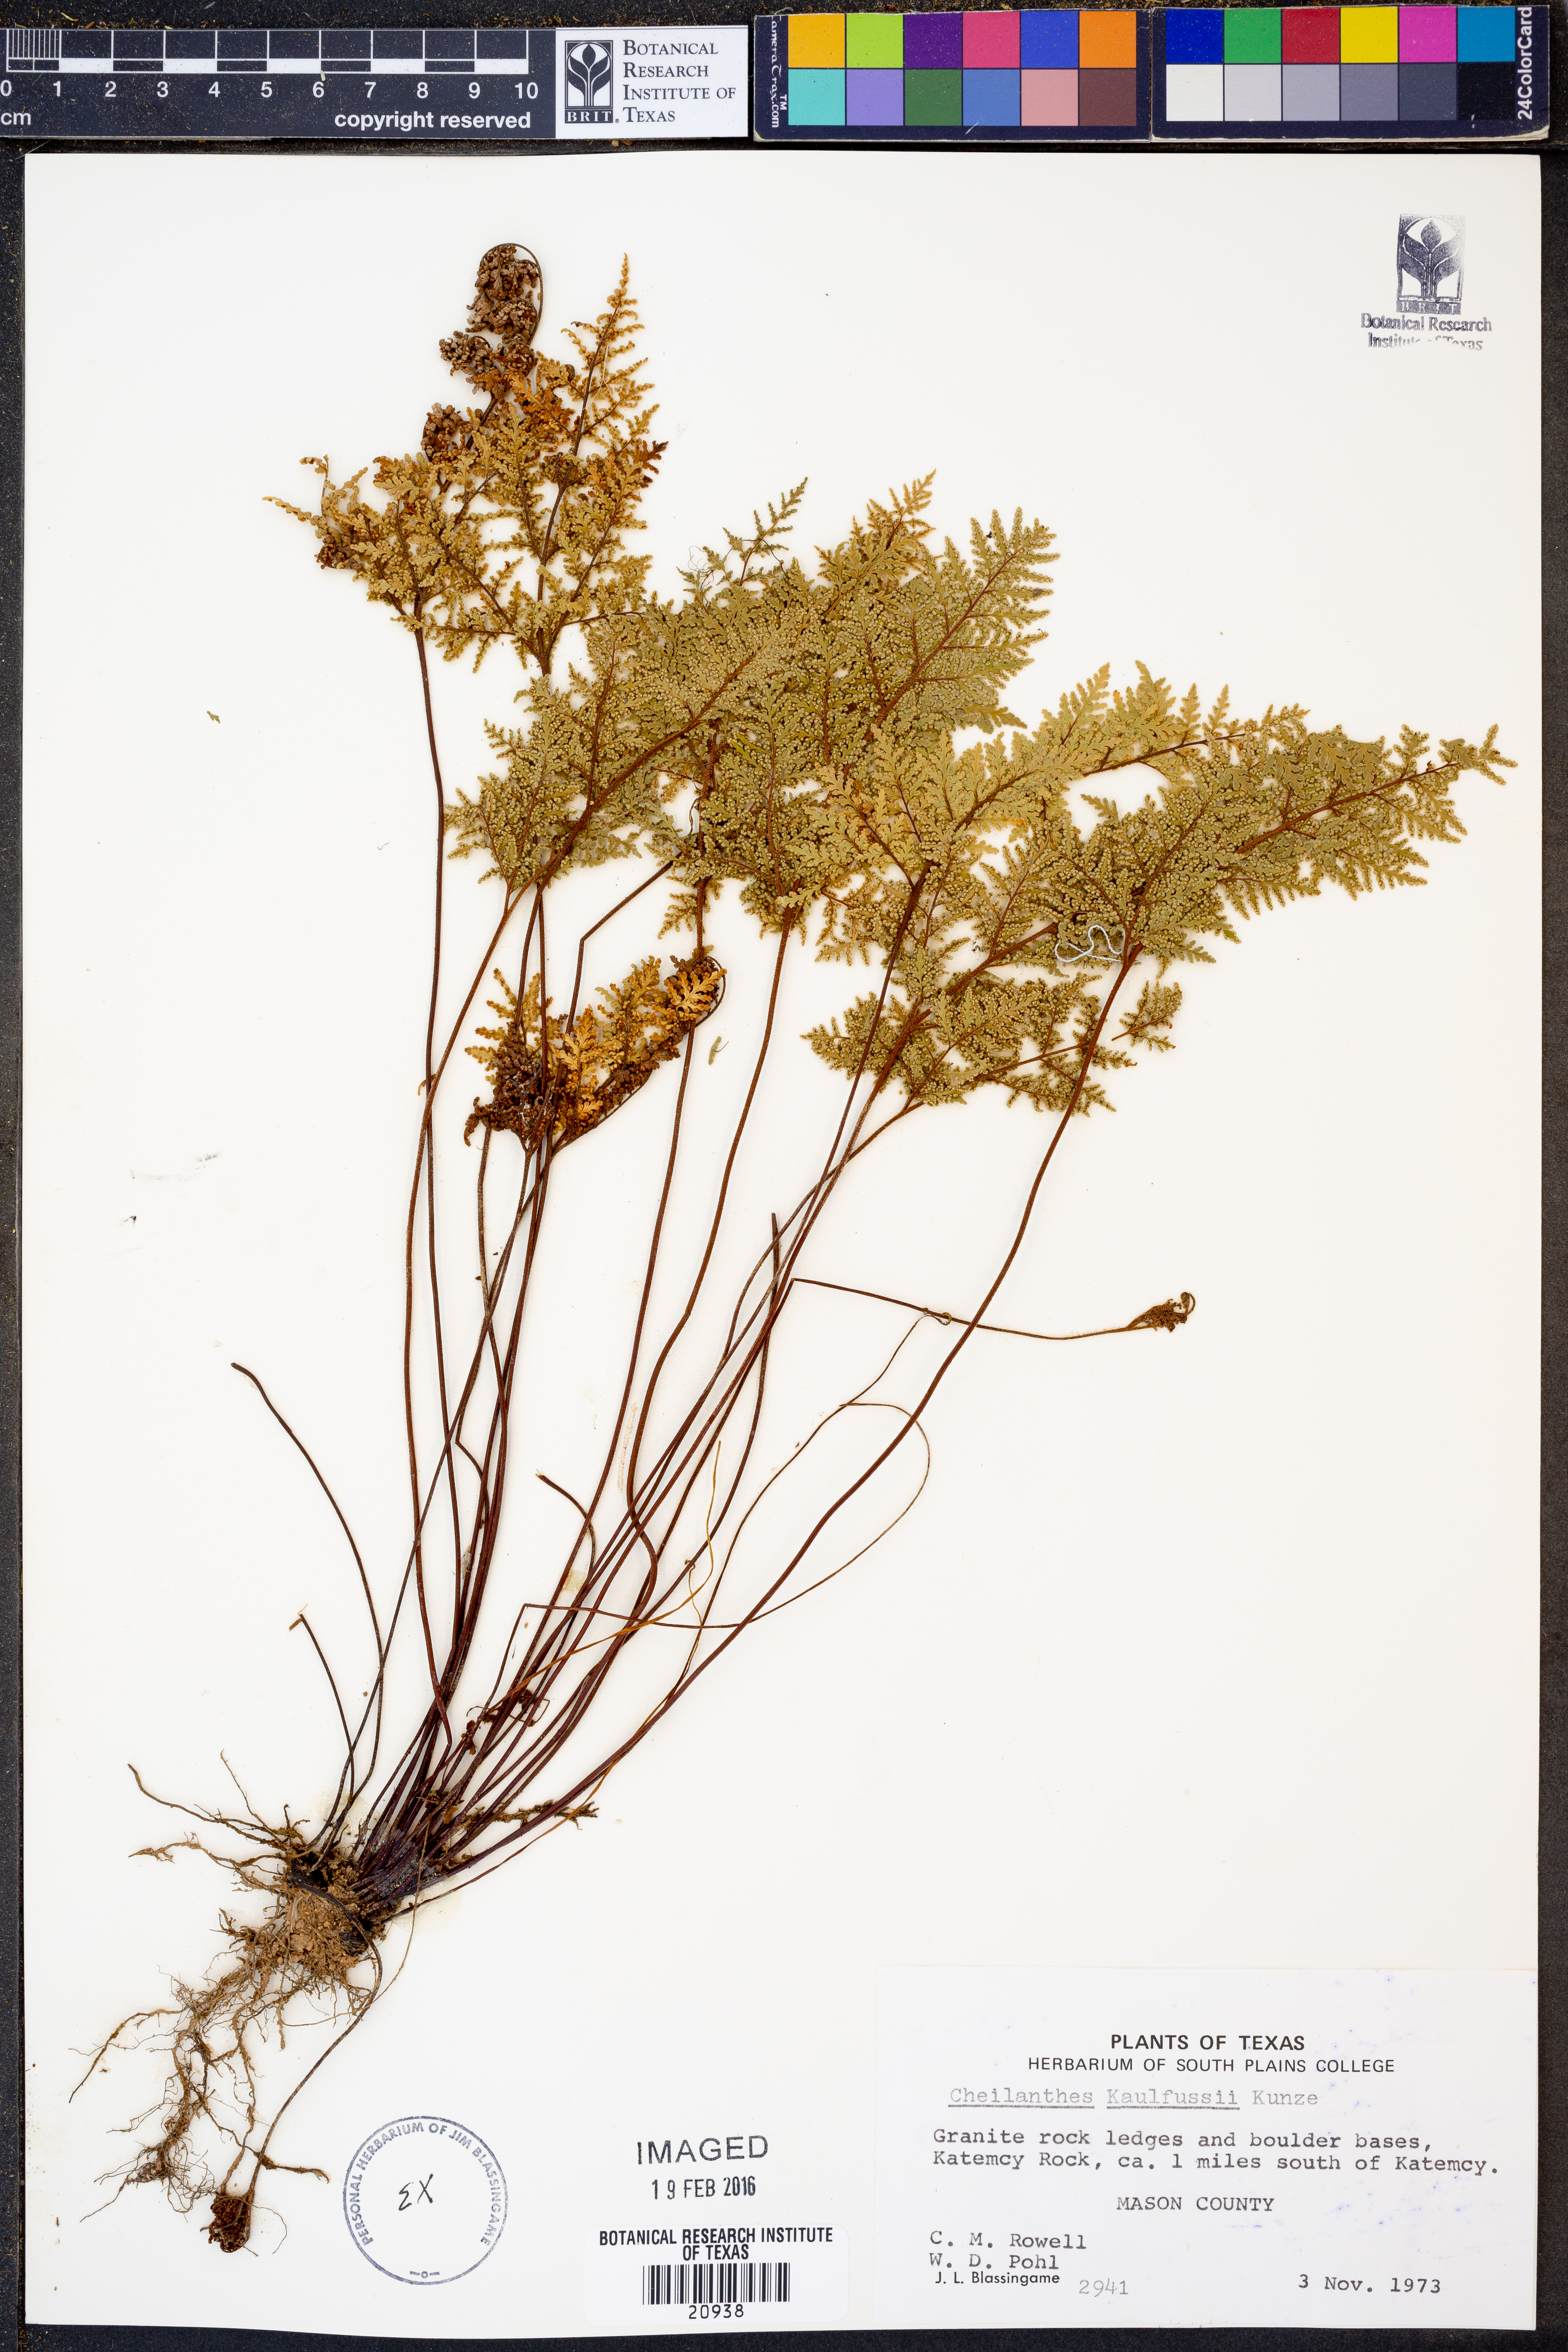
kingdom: Plantae
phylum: Tracheophyta
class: Polypodiopsida
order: Polypodiales
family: Pteridaceae
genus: Gaga
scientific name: Gaga kaulfussii
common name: Glandular lip fern
